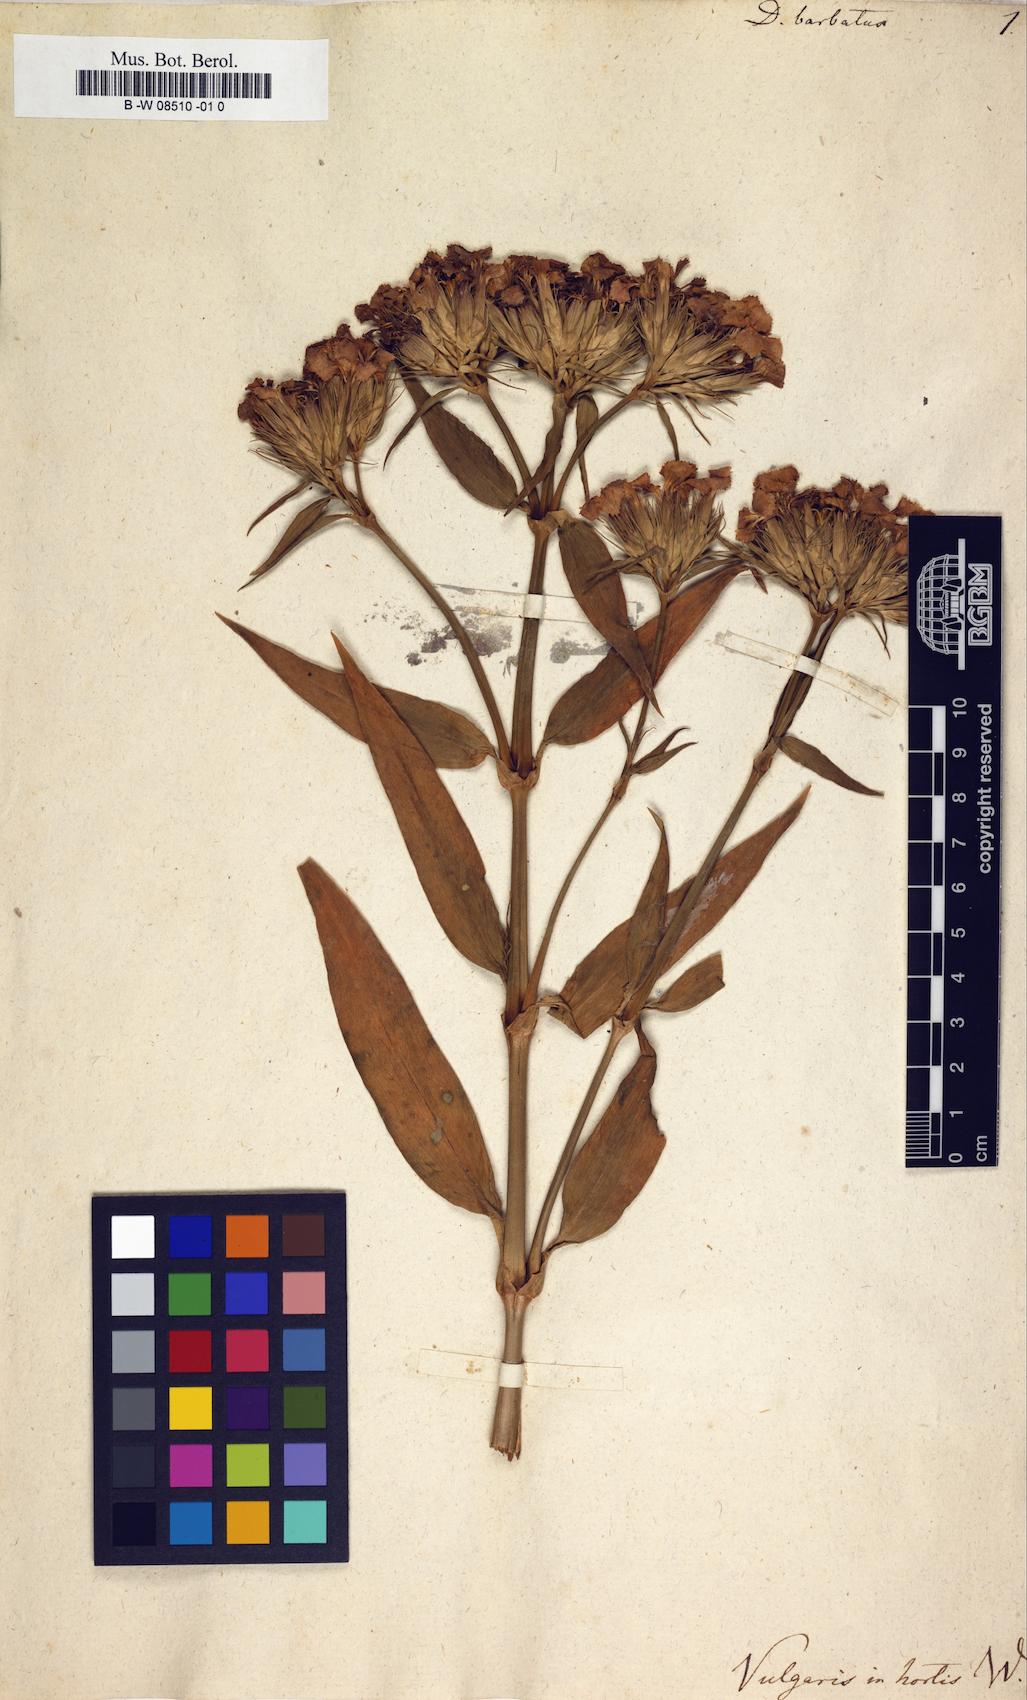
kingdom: Plantae
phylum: Tracheophyta
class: Magnoliopsida
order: Caryophyllales
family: Caryophyllaceae
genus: Dianthus
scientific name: Dianthus barbatus
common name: Sweet-william
